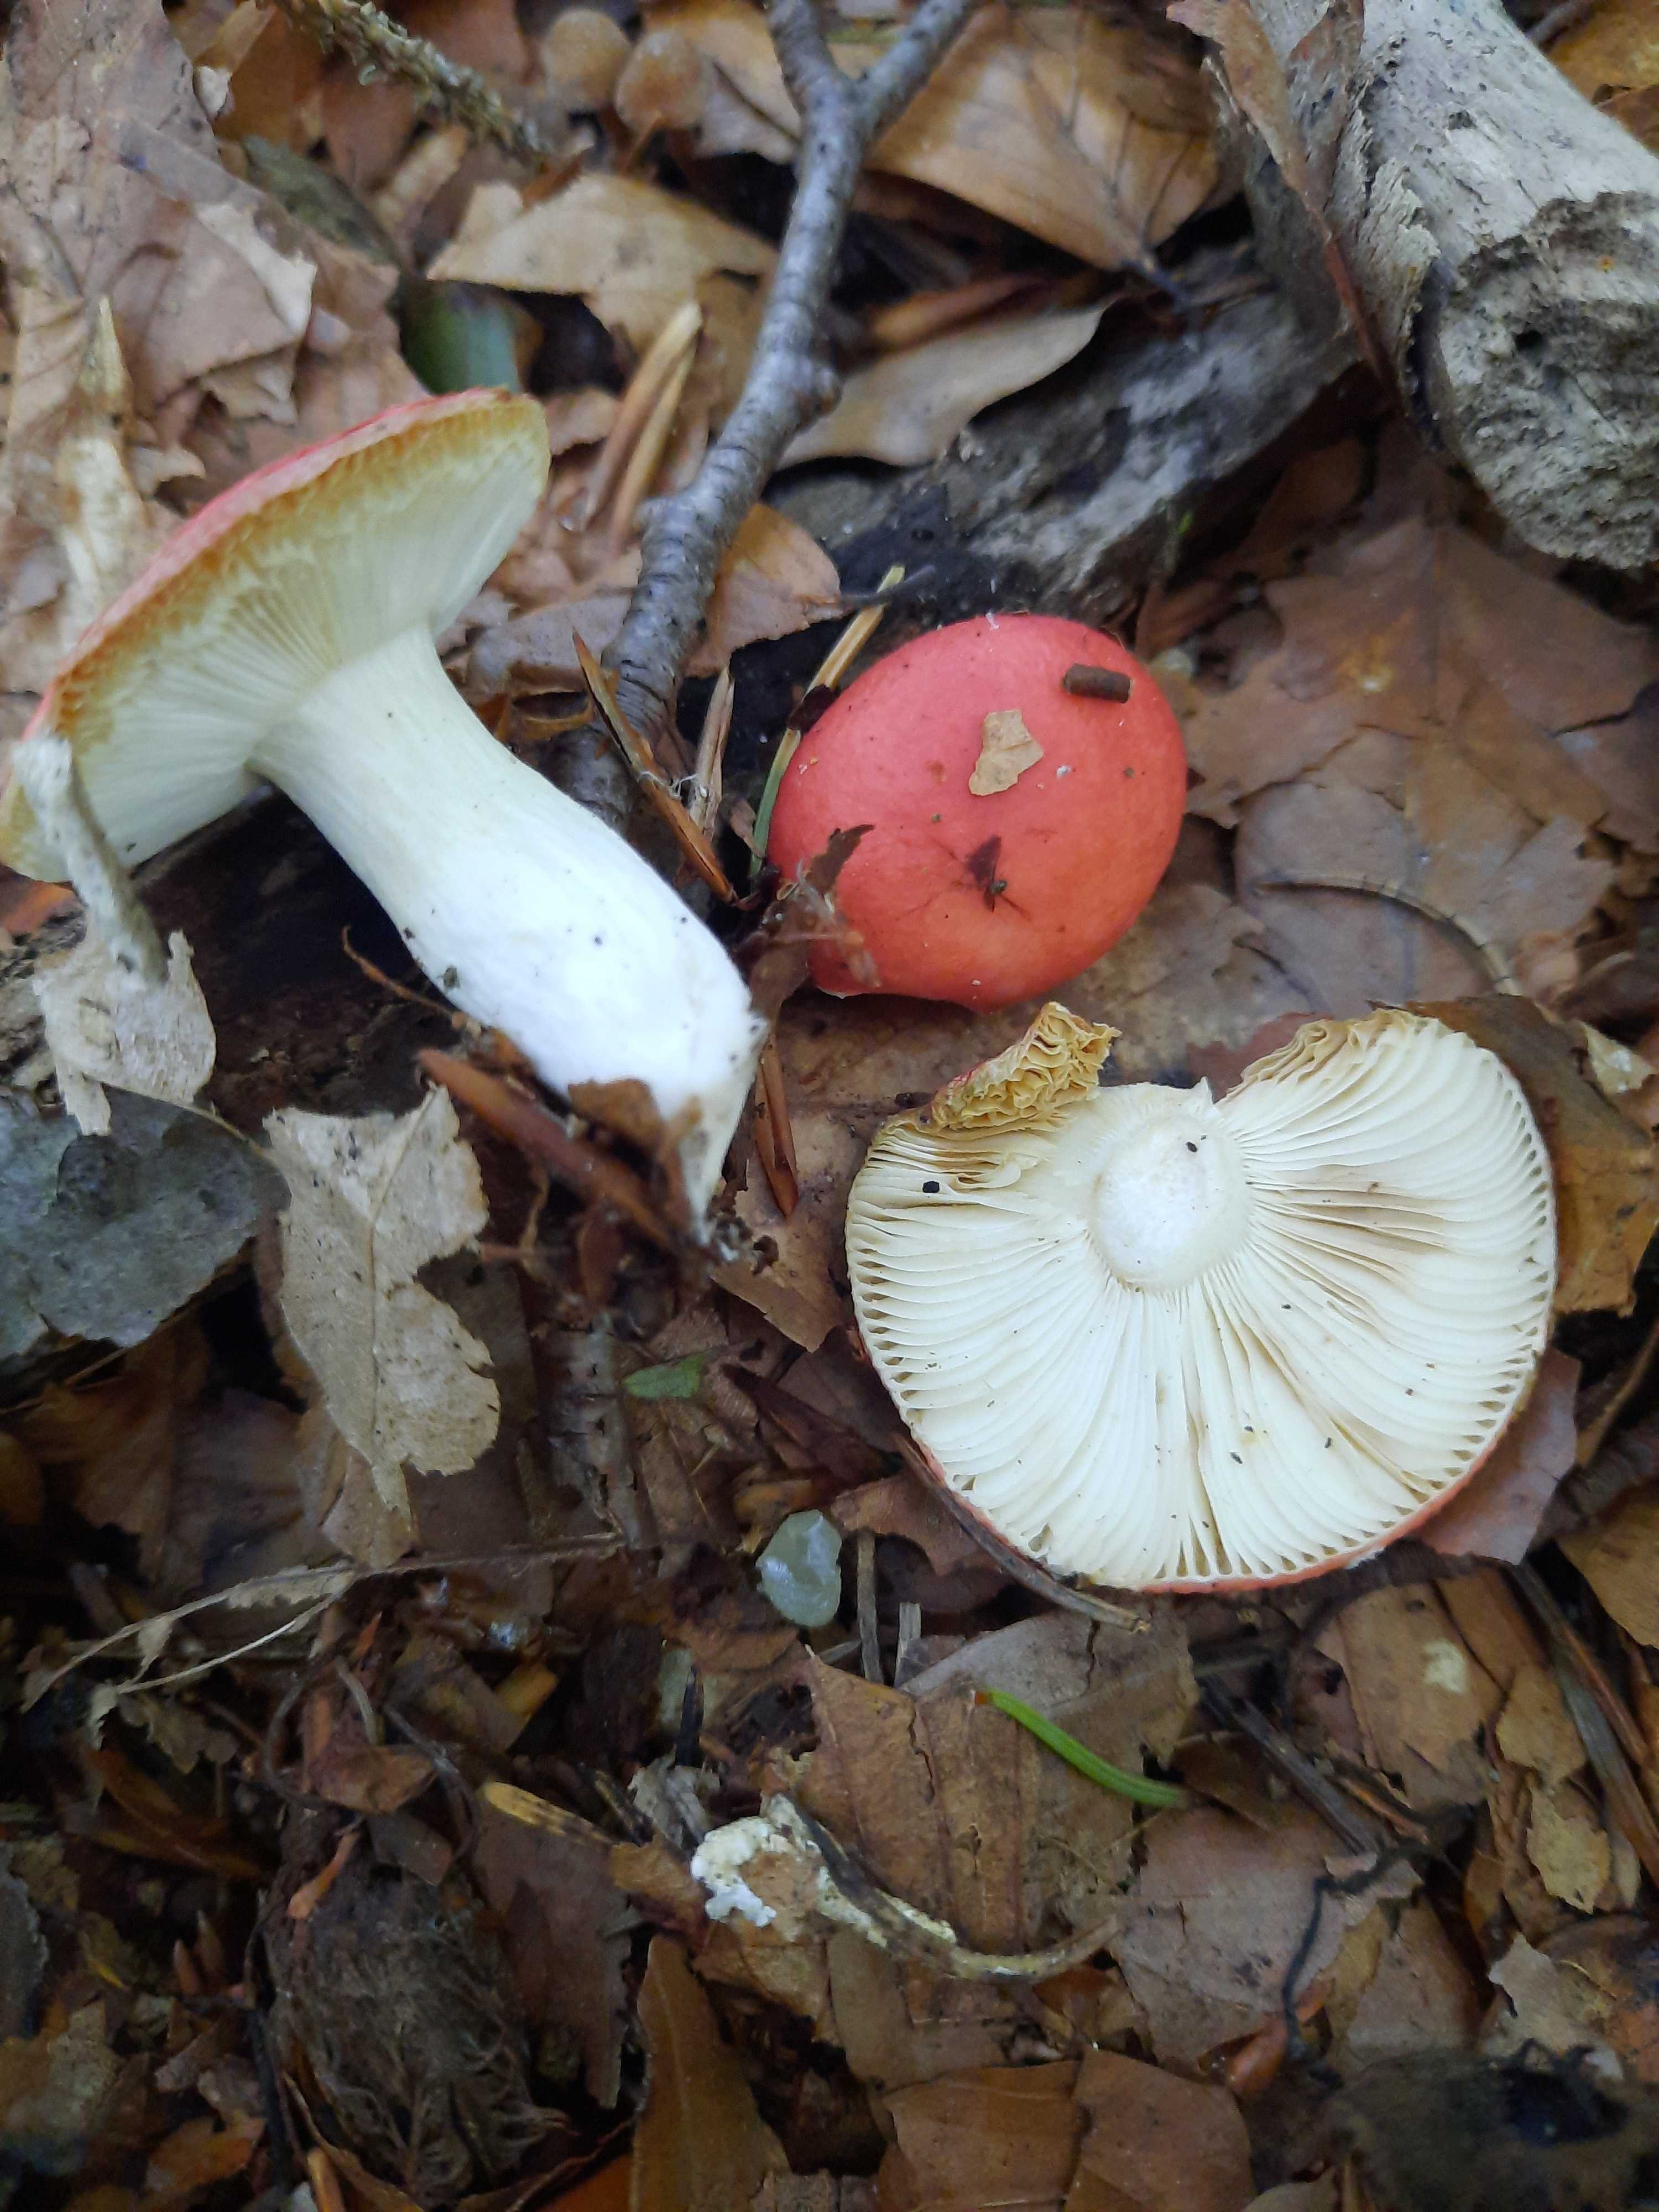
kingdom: Fungi
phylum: Basidiomycota
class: Agaricomycetes
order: Russulales
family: Russulaceae
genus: Russula
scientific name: Russula nobilis
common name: lille gift-skørhat
